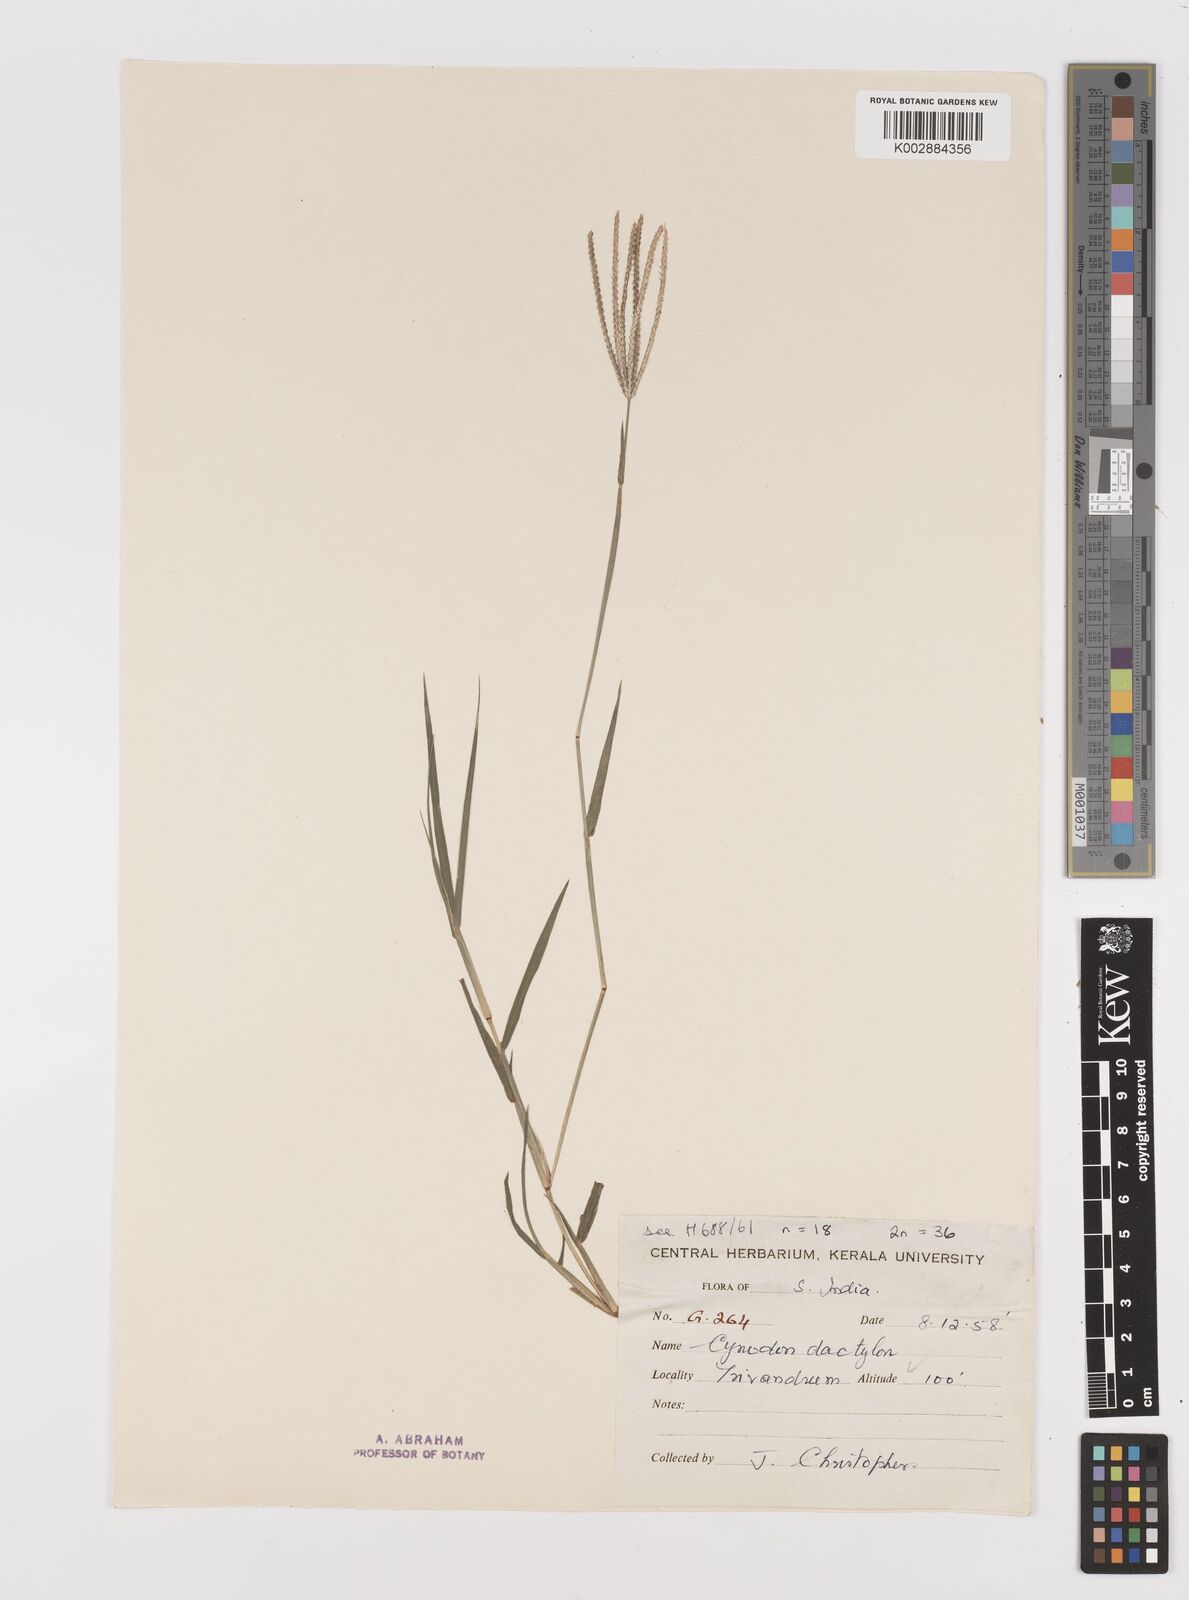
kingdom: Plantae
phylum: Tracheophyta
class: Liliopsida
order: Poales
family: Poaceae
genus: Cynodon
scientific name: Cynodon dactylon
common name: Bermuda grass
